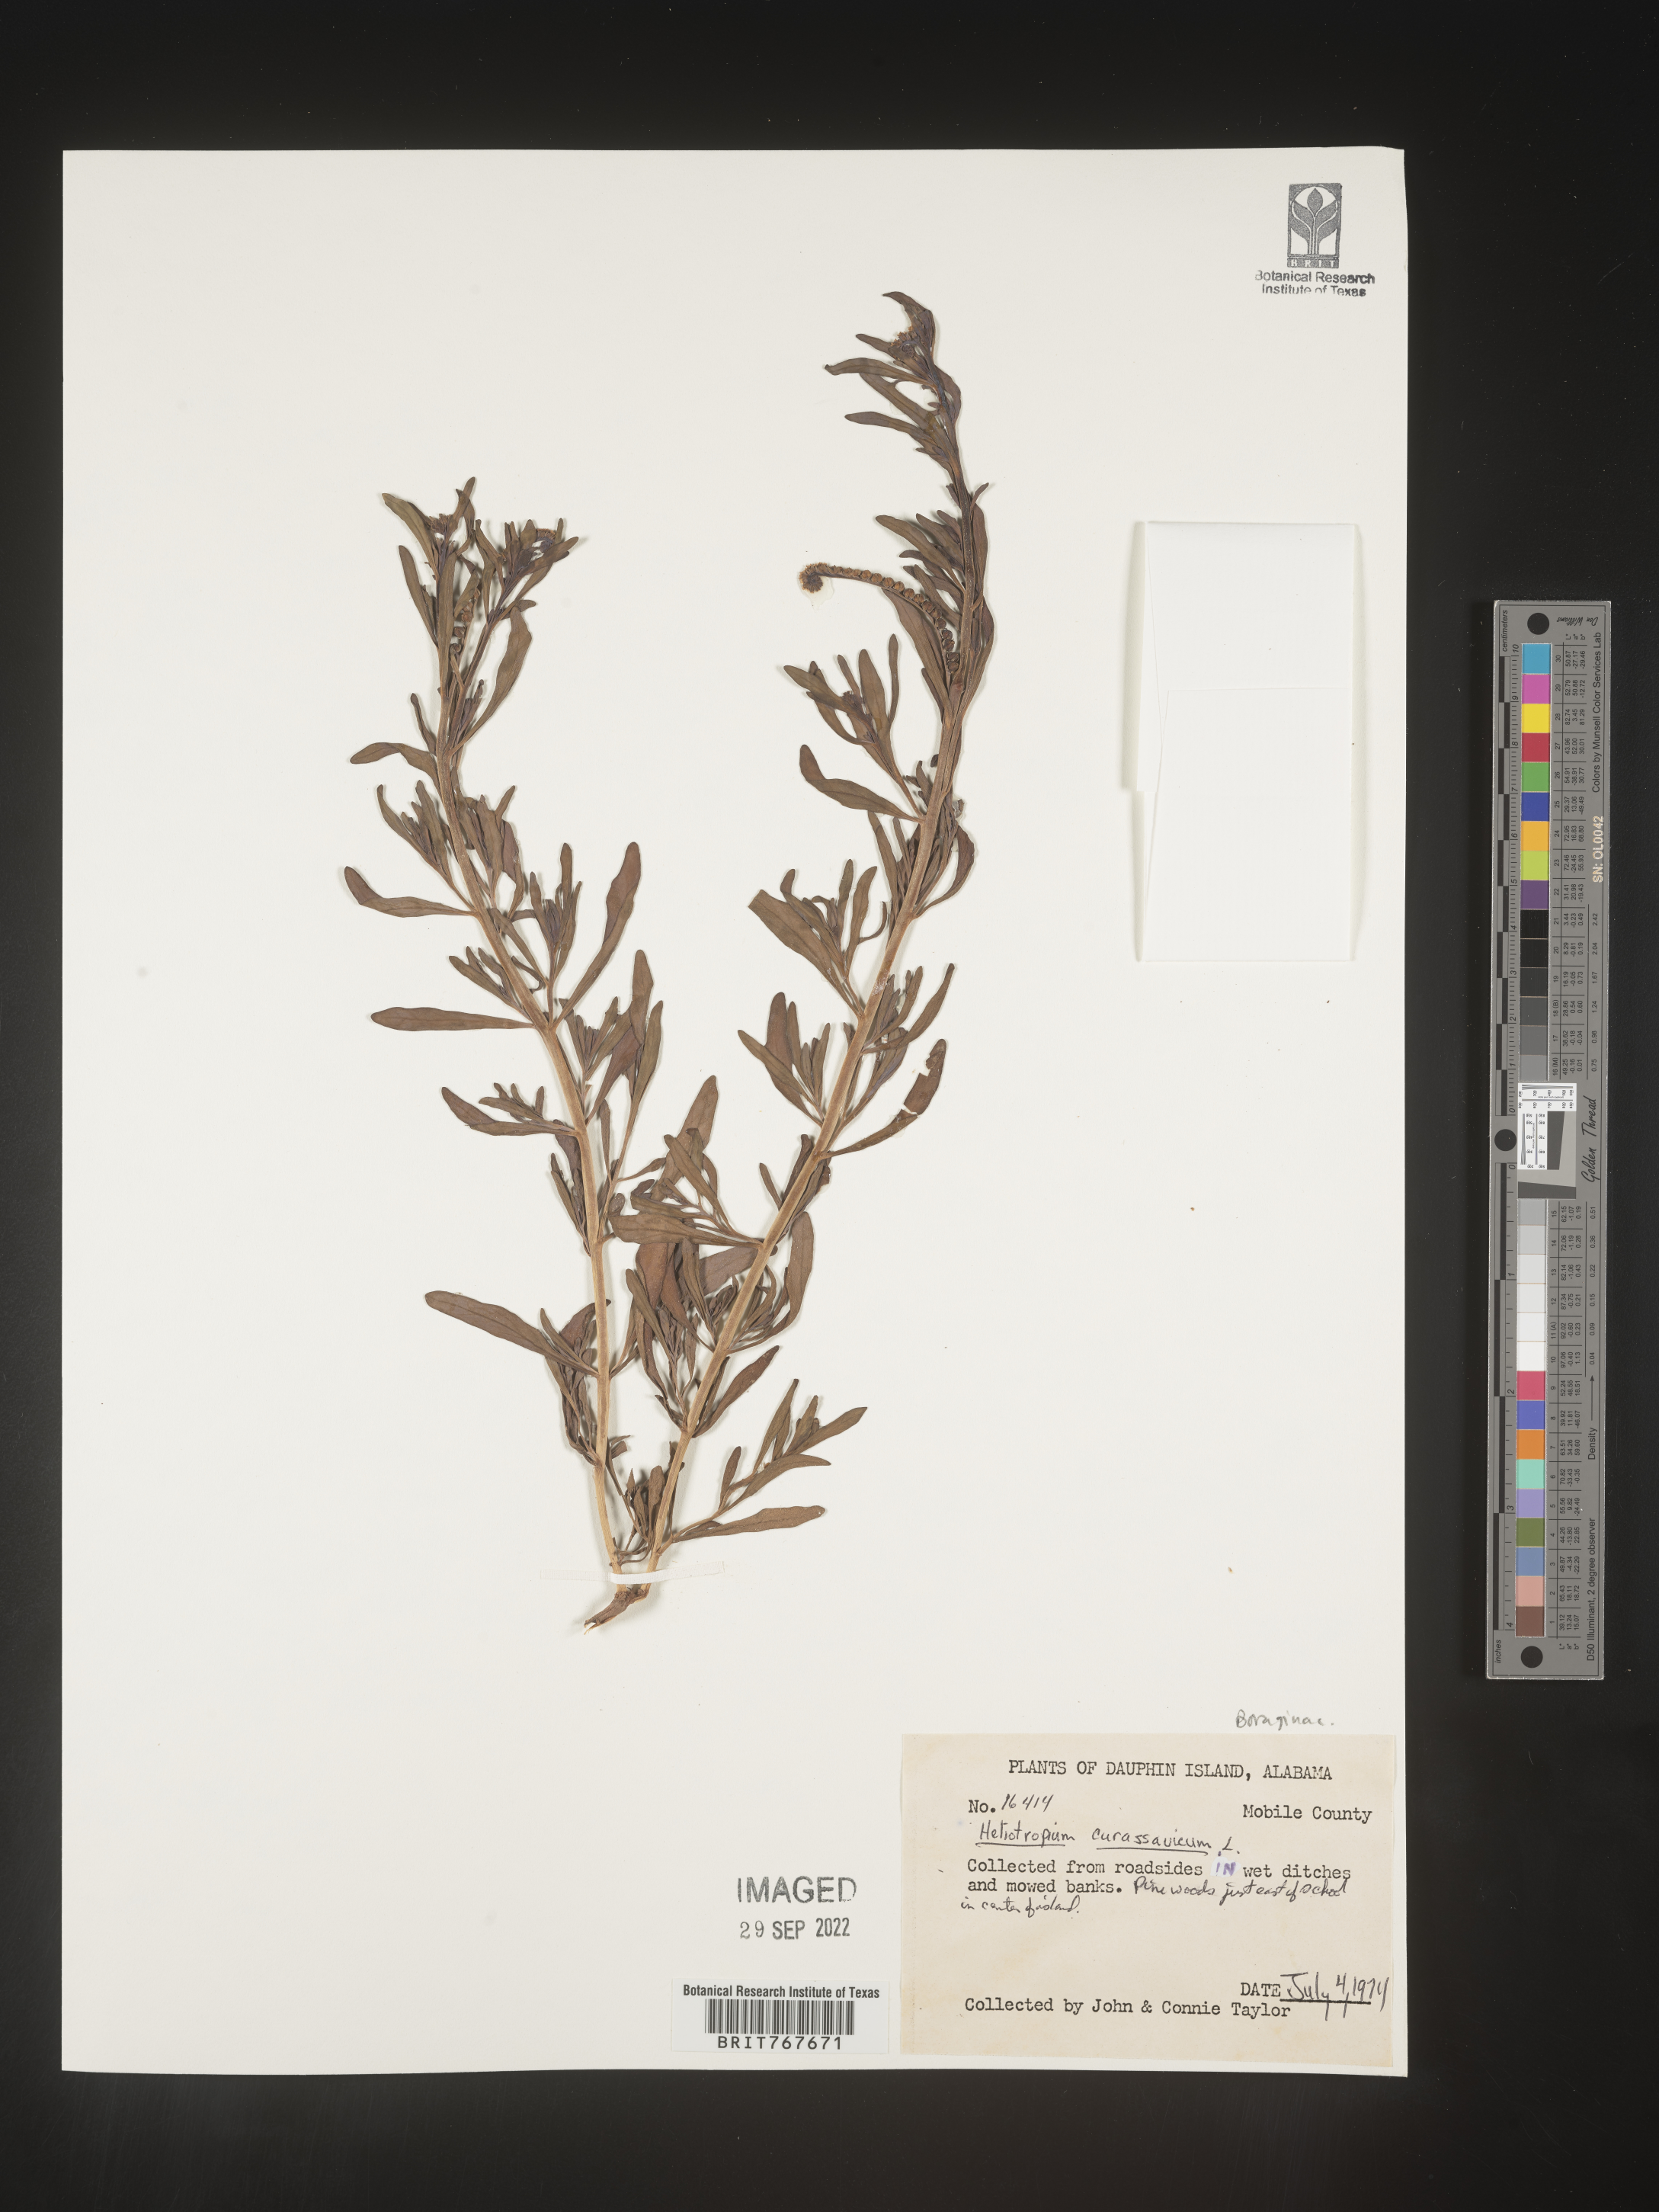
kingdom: Plantae
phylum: Tracheophyta
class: Magnoliopsida
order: Boraginales
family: Heliotropiaceae
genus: Heliotropium
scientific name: Heliotropium curassavicum
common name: Seaside heliotrope
